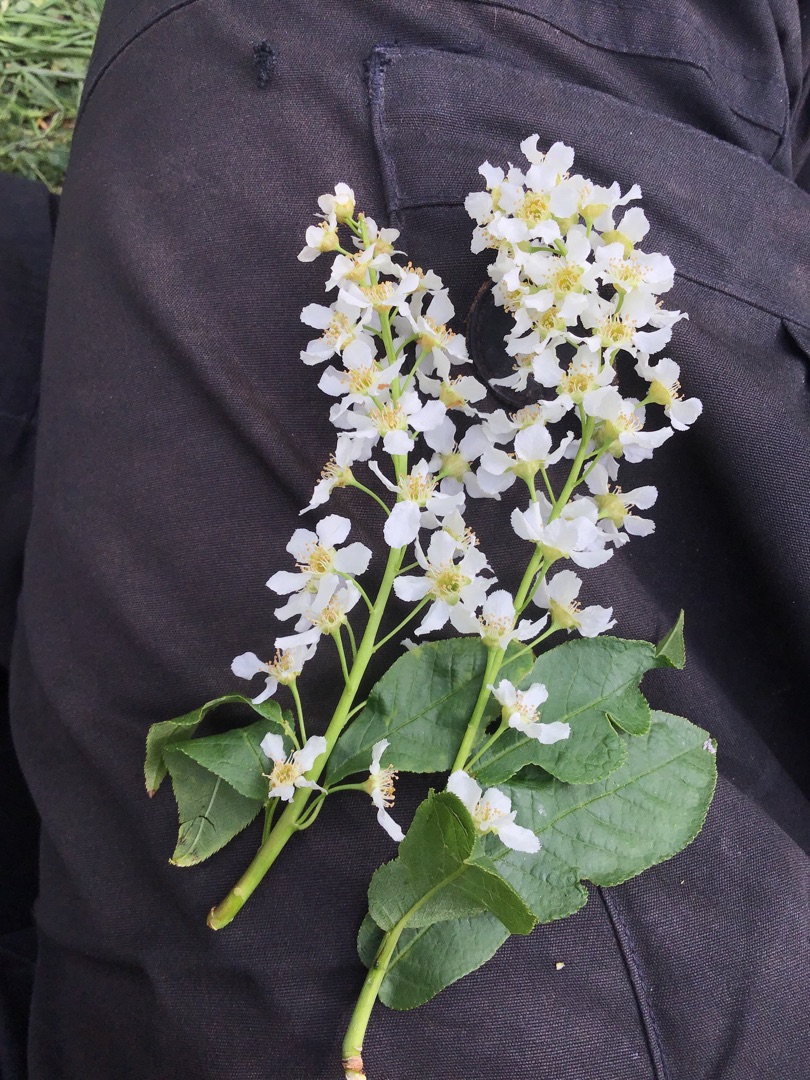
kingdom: Plantae
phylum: Tracheophyta
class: Magnoliopsida
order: Rosales
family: Rosaceae
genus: Prunus
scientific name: Prunus padus
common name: Almindelig hæg
